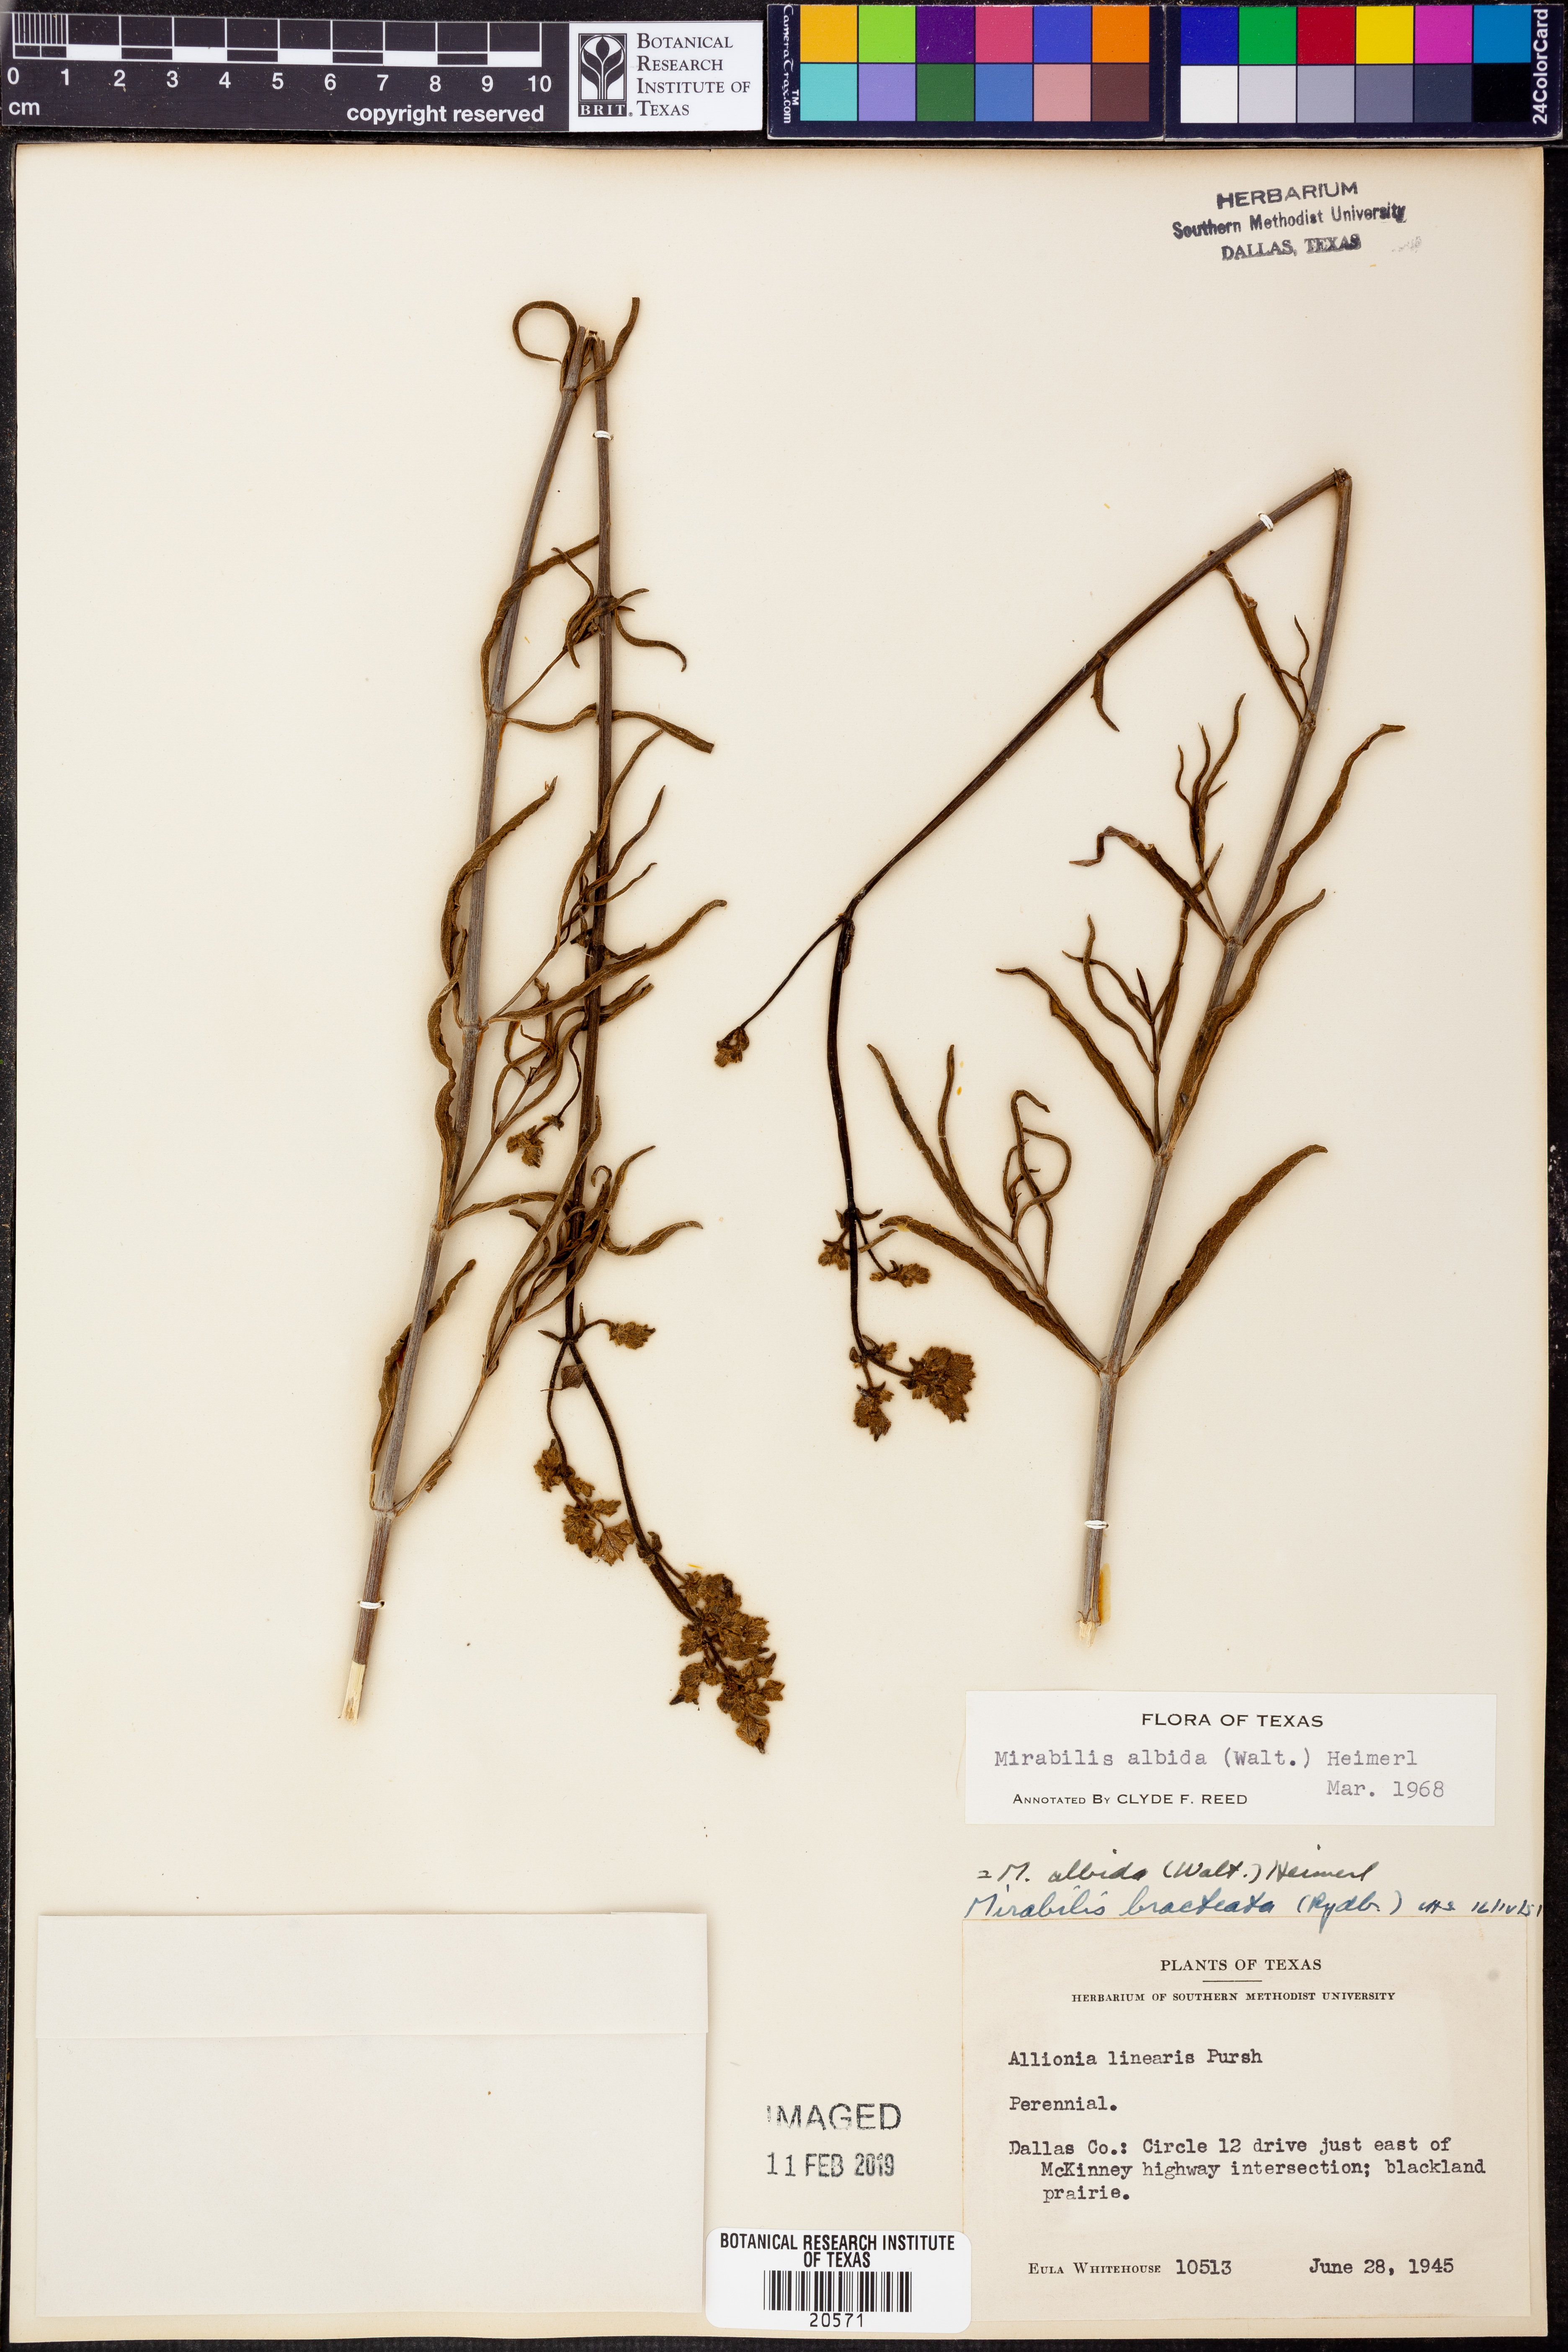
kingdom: Plantae
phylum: Tracheophyta
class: Magnoliopsida
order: Caryophyllales
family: Nyctaginaceae
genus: Mirabilis
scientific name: Mirabilis albida
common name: Hairy four-o'clock
